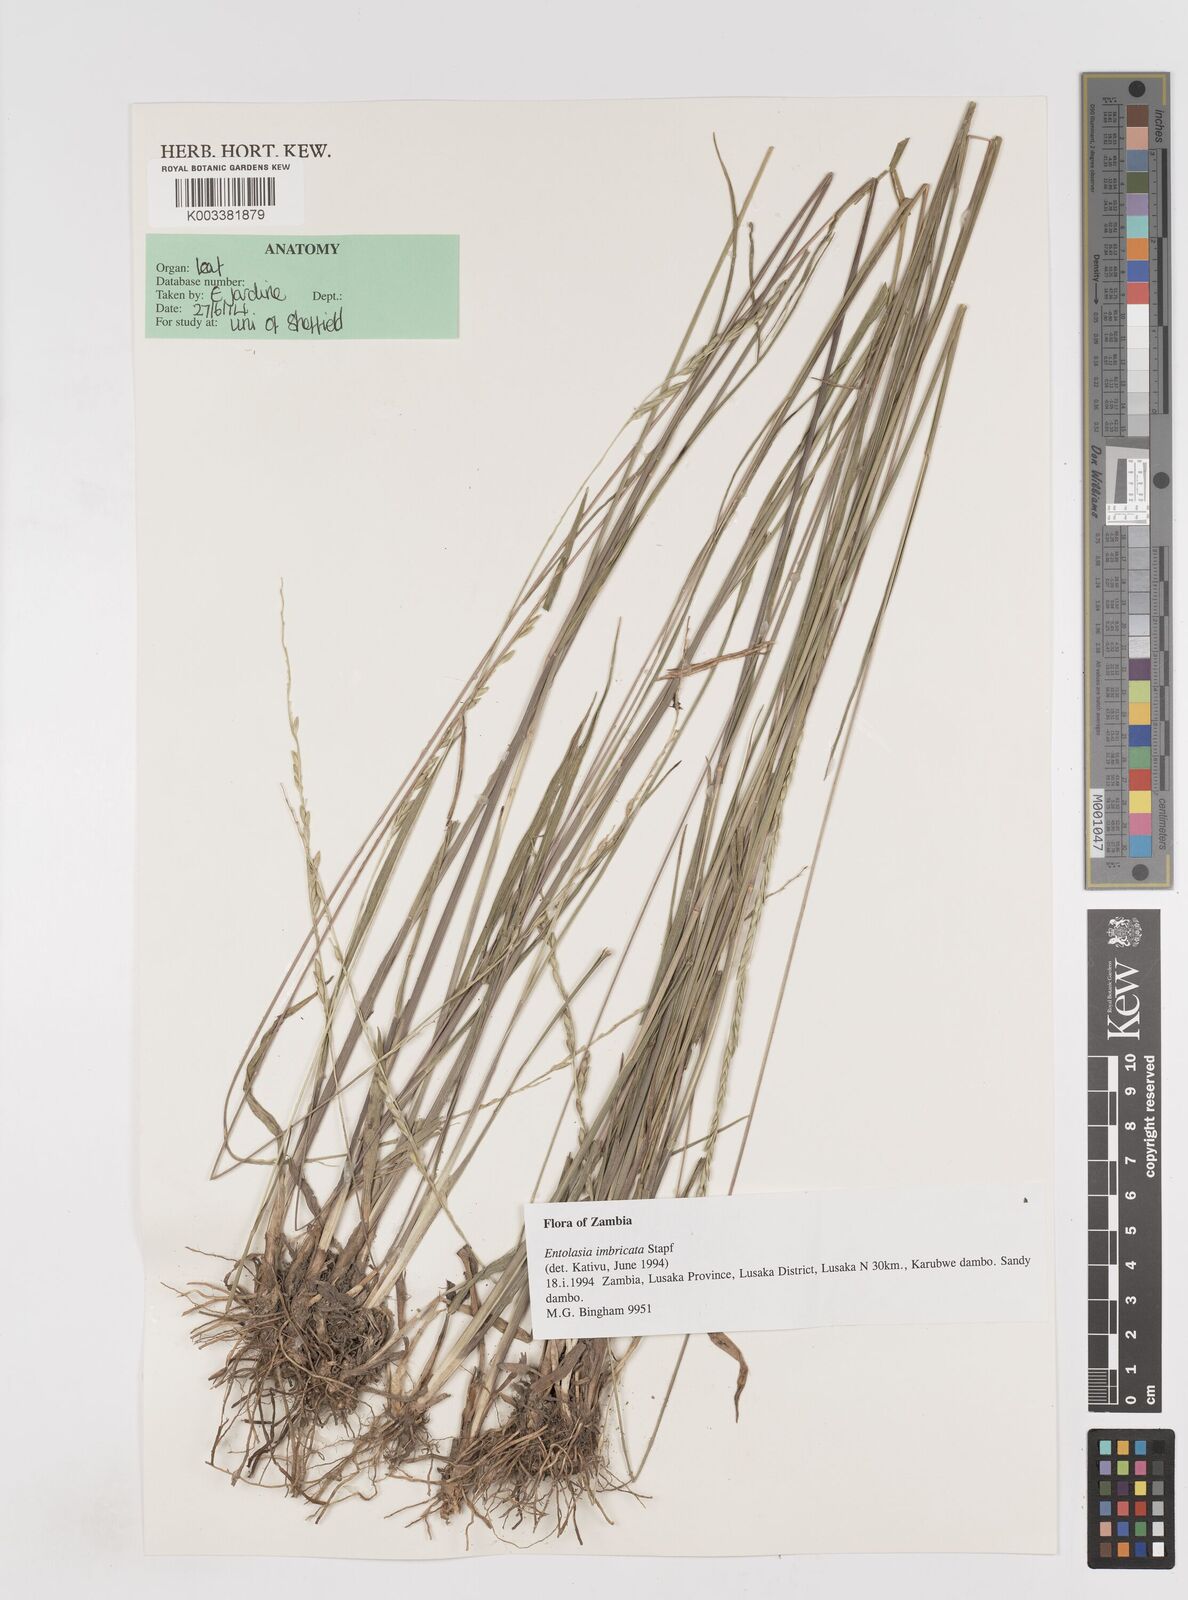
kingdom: Plantae
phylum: Tracheophyta
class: Liliopsida
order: Poales
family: Poaceae
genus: Entolasia
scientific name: Entolasia imbricata
